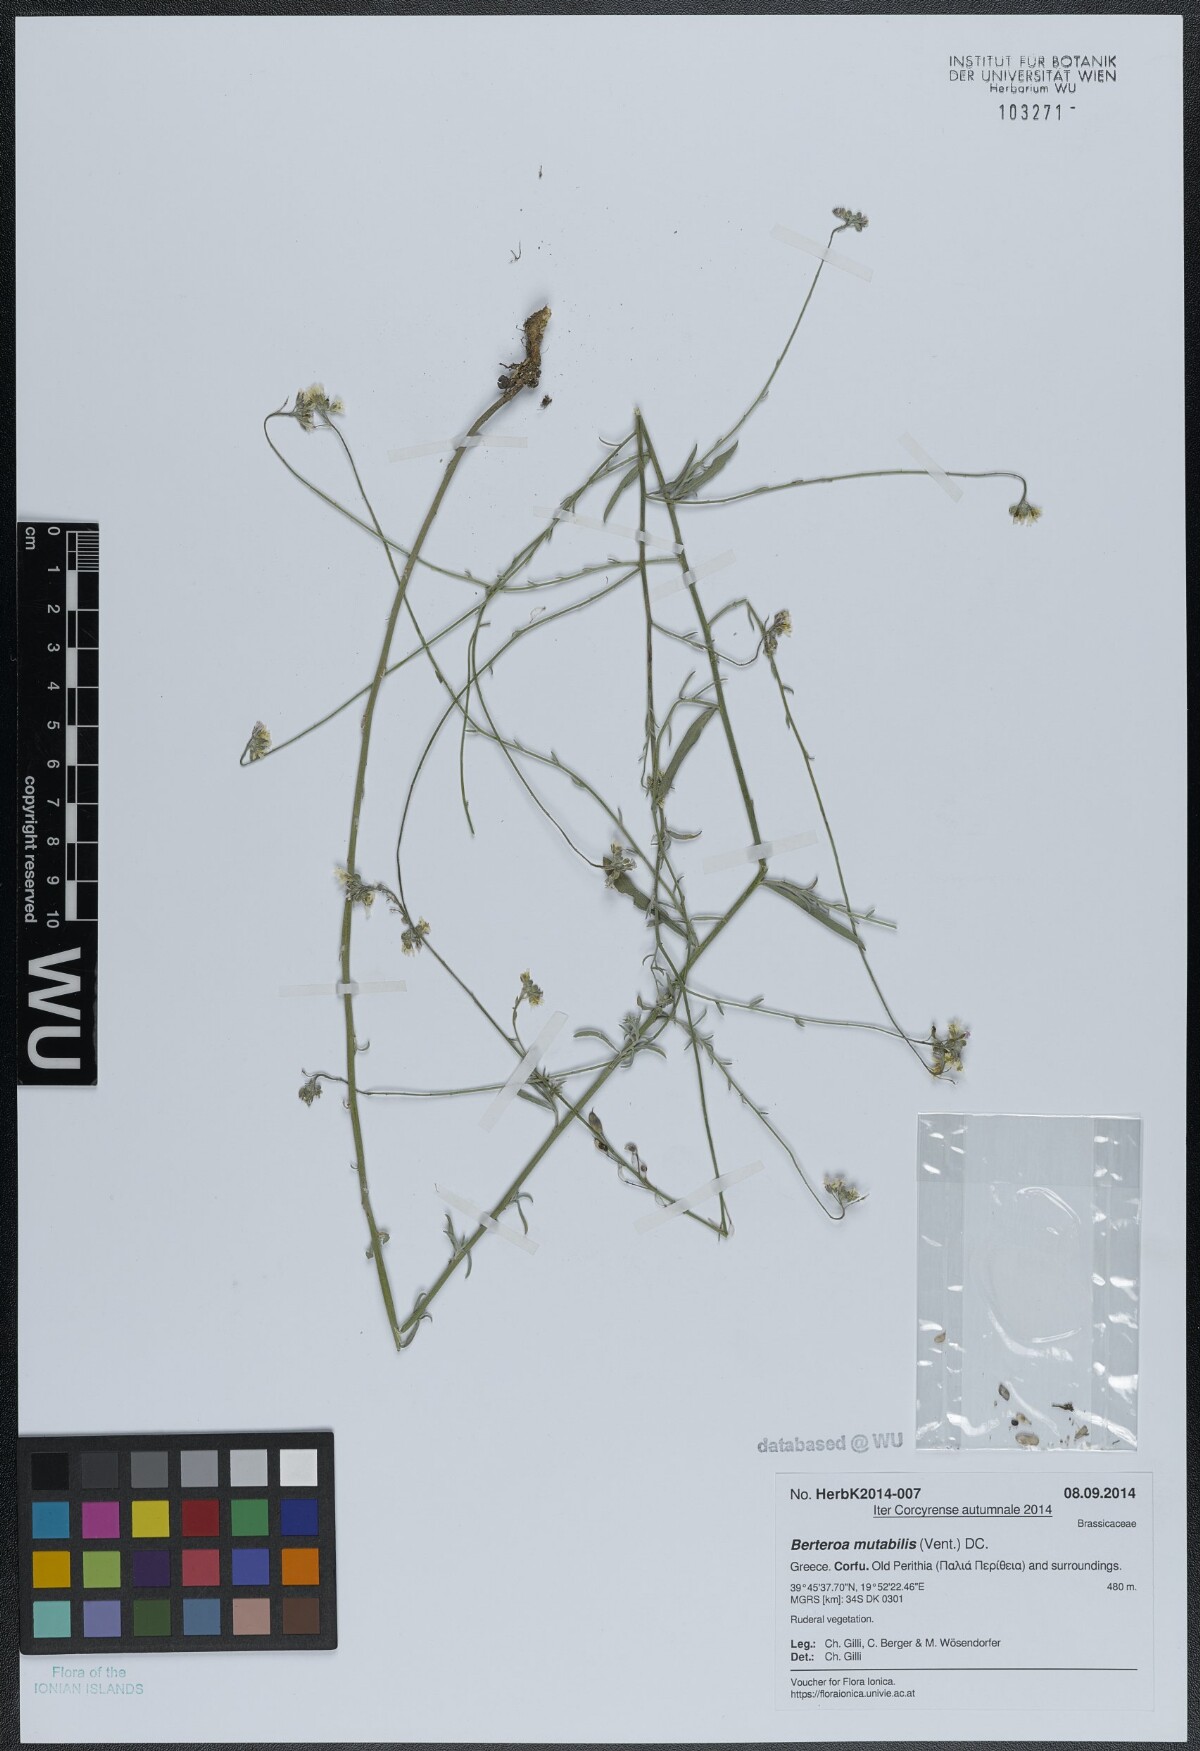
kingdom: Plantae
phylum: Tracheophyta
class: Magnoliopsida
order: Brassicales
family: Brassicaceae
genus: Berteroa
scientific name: Berteroa mutabilis
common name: Roadside false madwort
